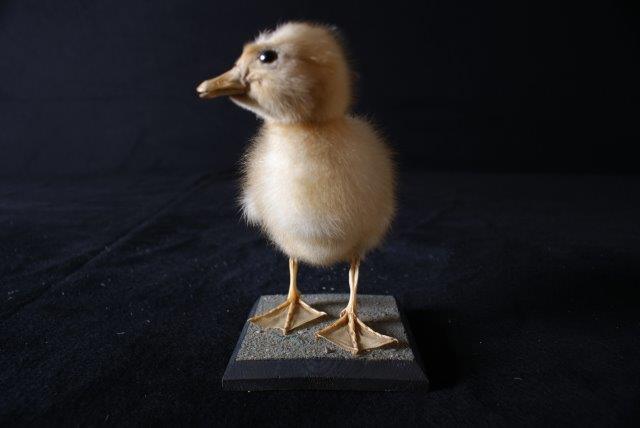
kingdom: Animalia
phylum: Chordata
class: Aves
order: Anseriformes
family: Anatidae
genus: Anser
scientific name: Anser anser
